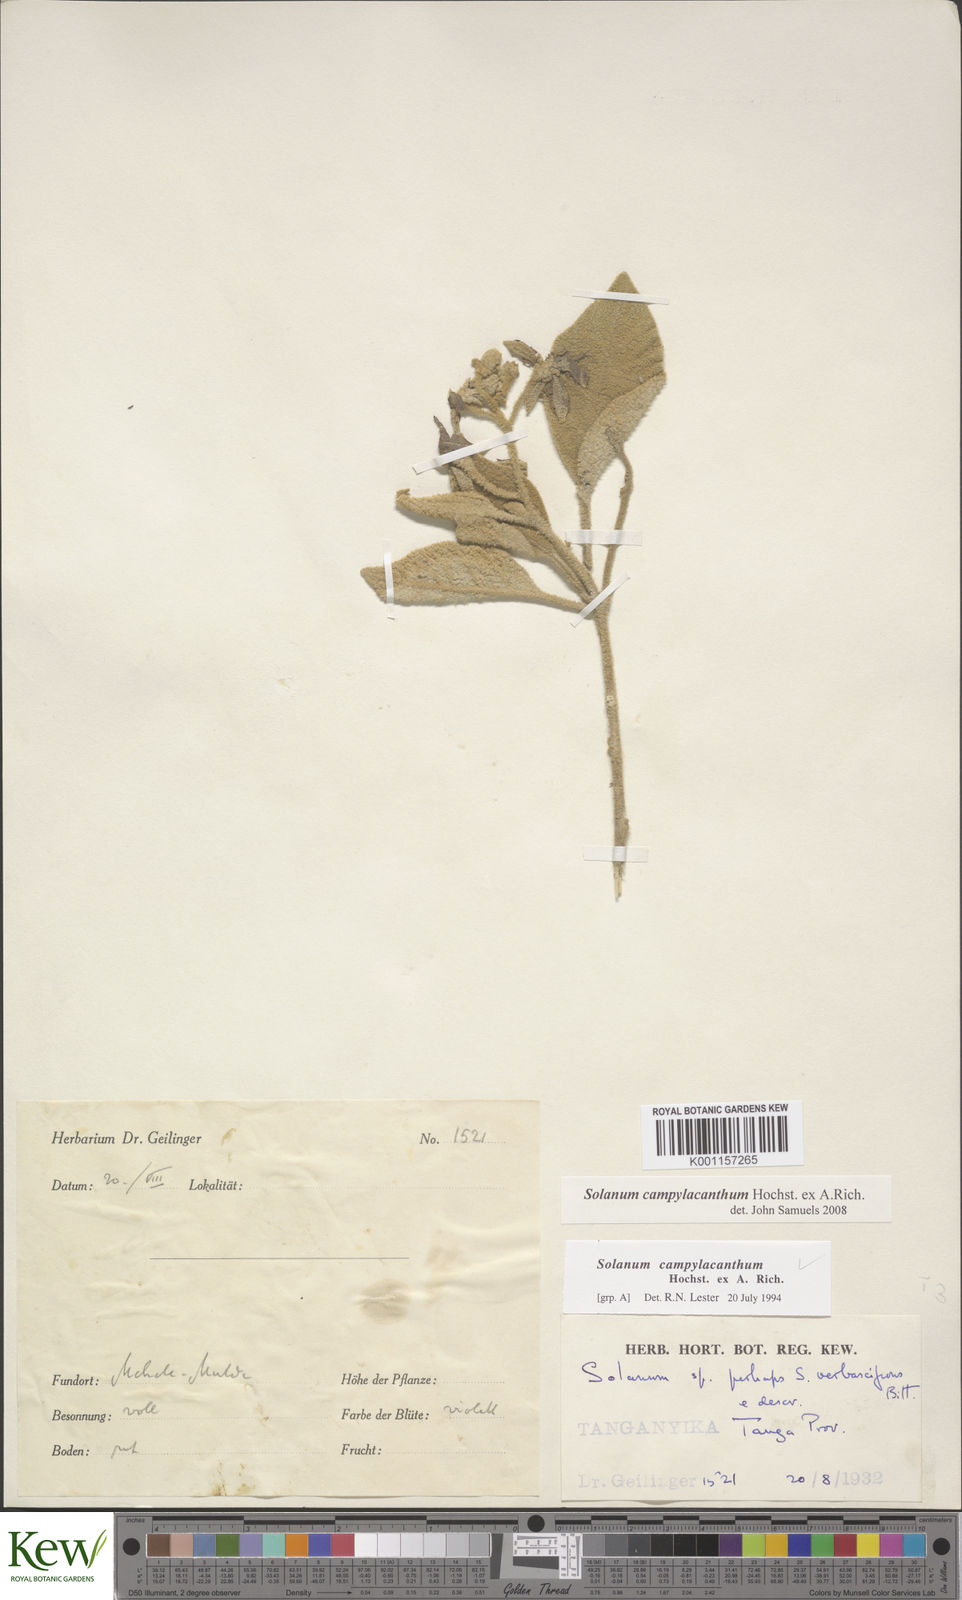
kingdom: Plantae
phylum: Tracheophyta
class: Magnoliopsida
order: Solanales
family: Solanaceae
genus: Solanum
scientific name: Solanum campylacanthum
